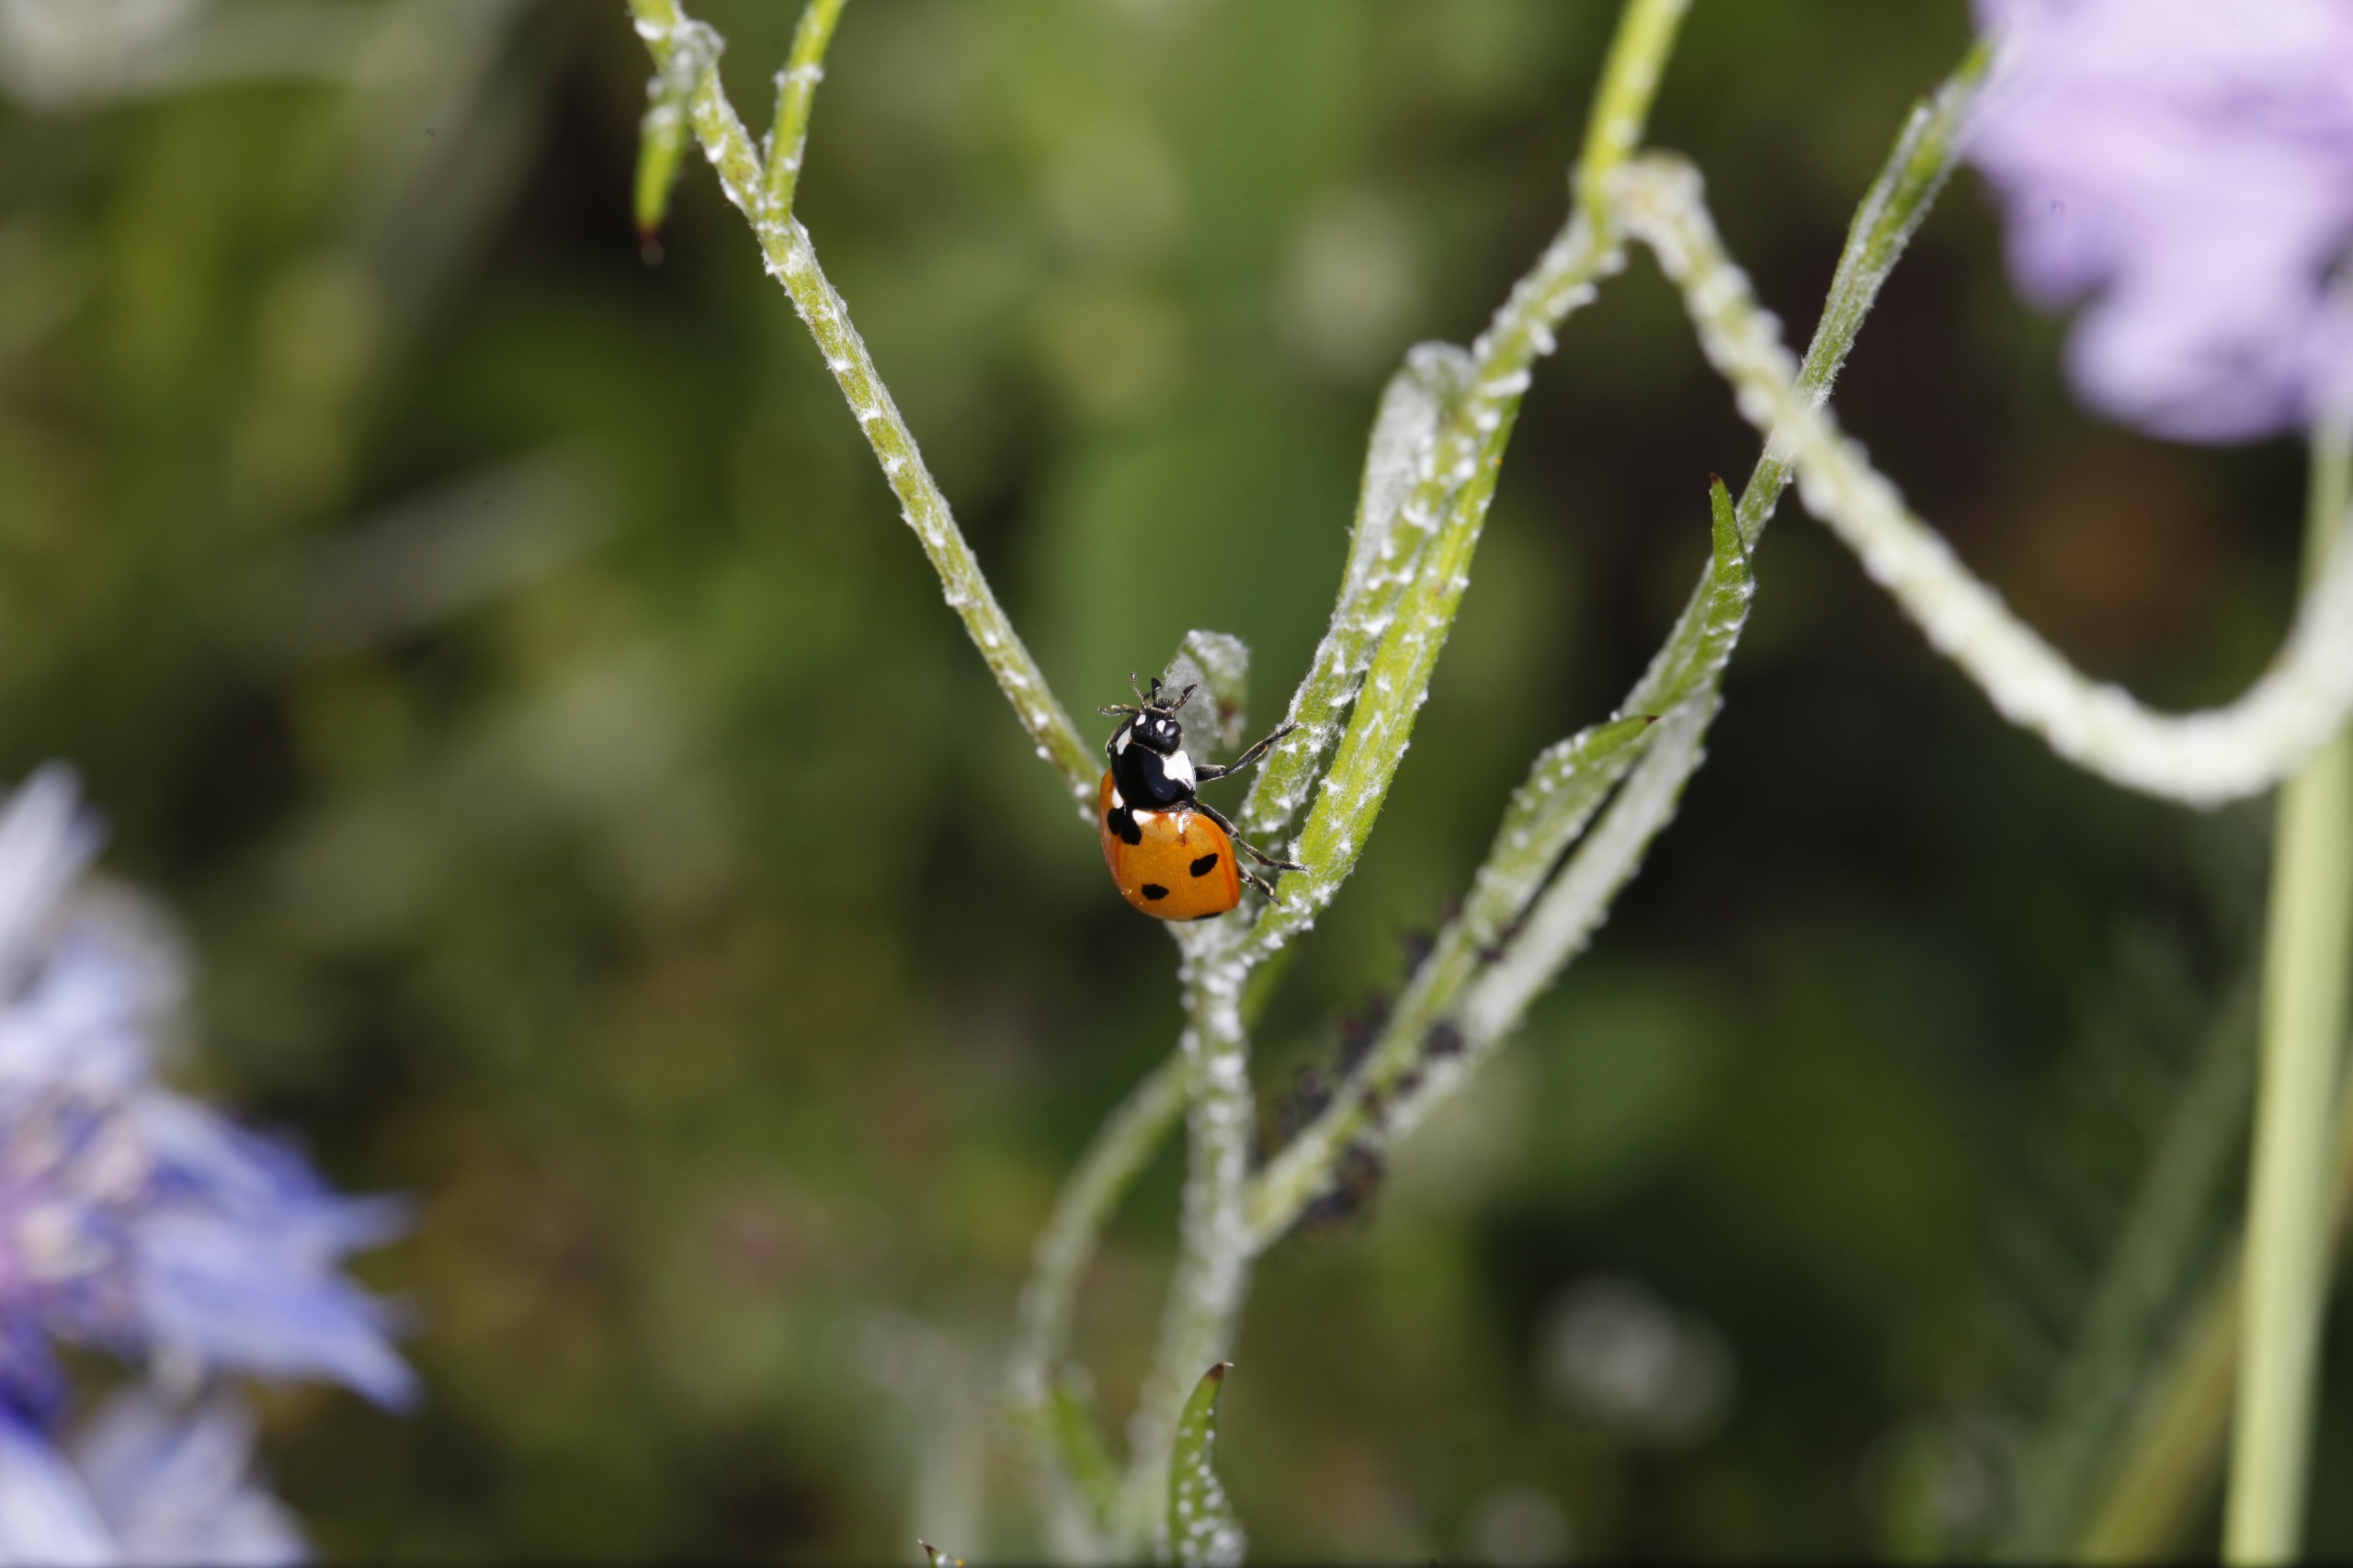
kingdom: Animalia
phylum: Arthropoda
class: Insecta
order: Coleoptera
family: Coccinellidae
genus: Coccinella
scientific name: Coccinella septempunctata
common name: Syvplettet mariehøne
